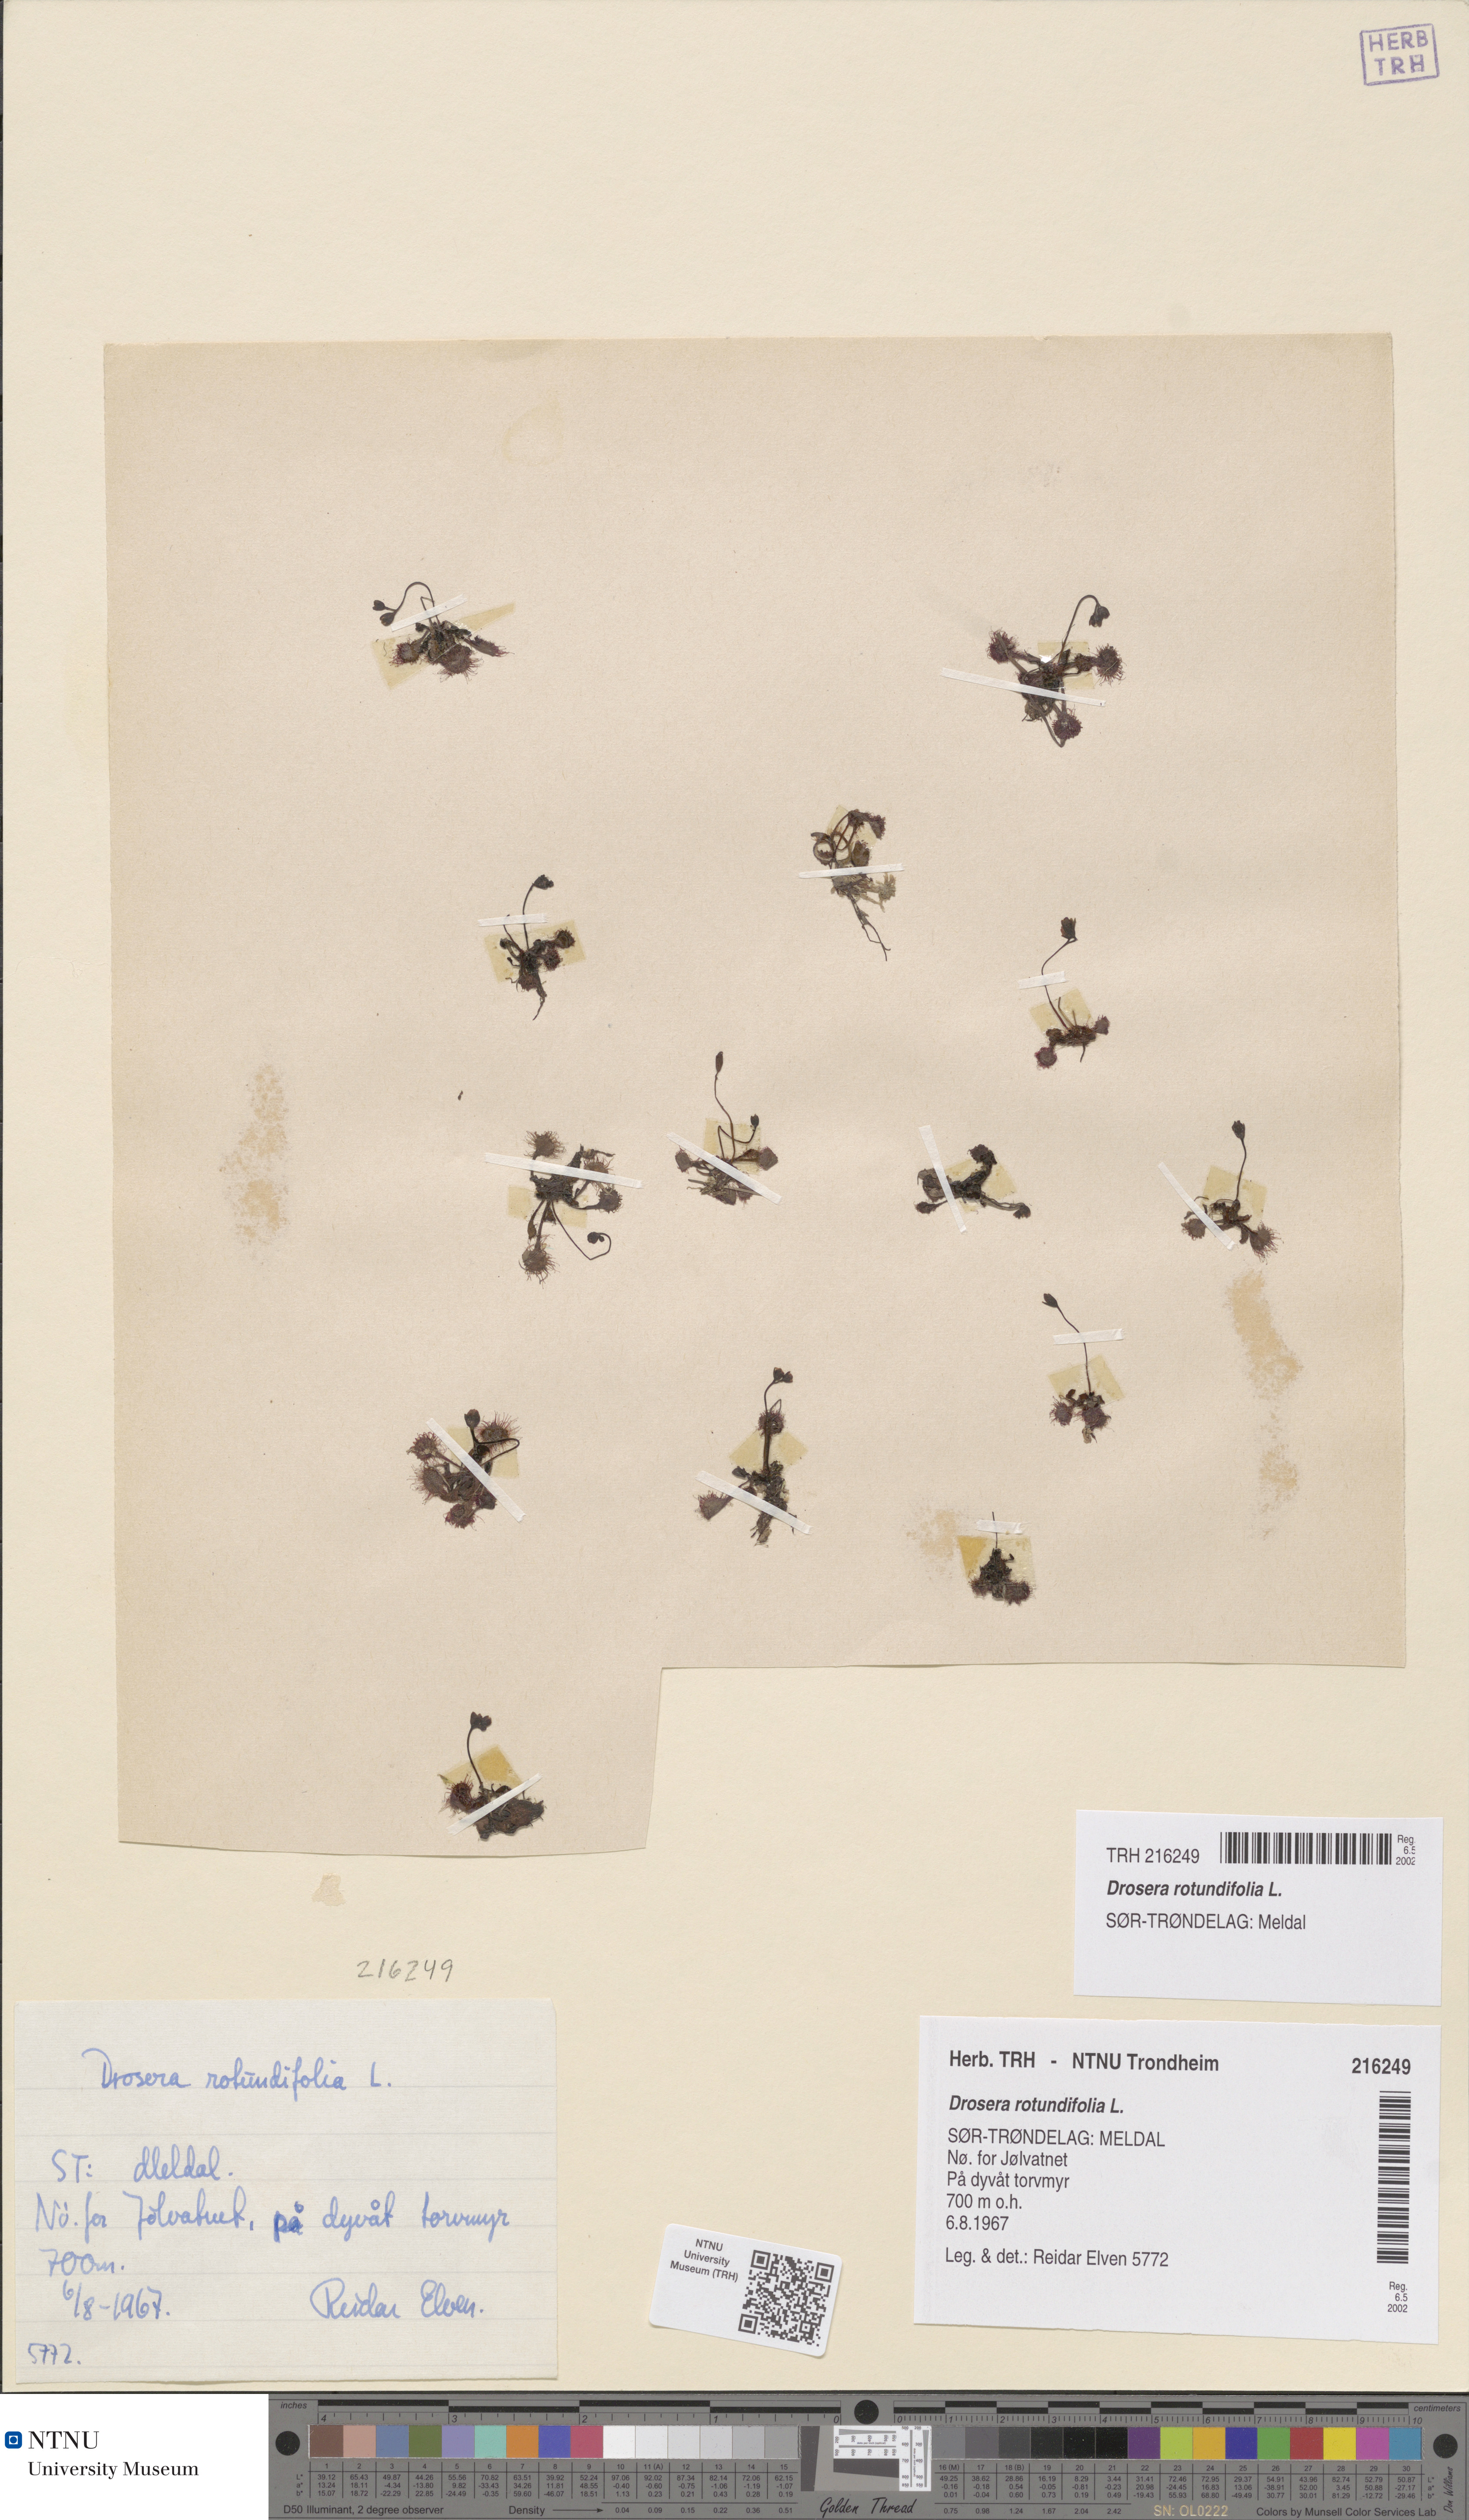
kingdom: Plantae
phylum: Tracheophyta
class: Magnoliopsida
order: Caryophyllales
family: Droseraceae
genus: Drosera
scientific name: Drosera rotundifolia
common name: Round-leaved sundew
